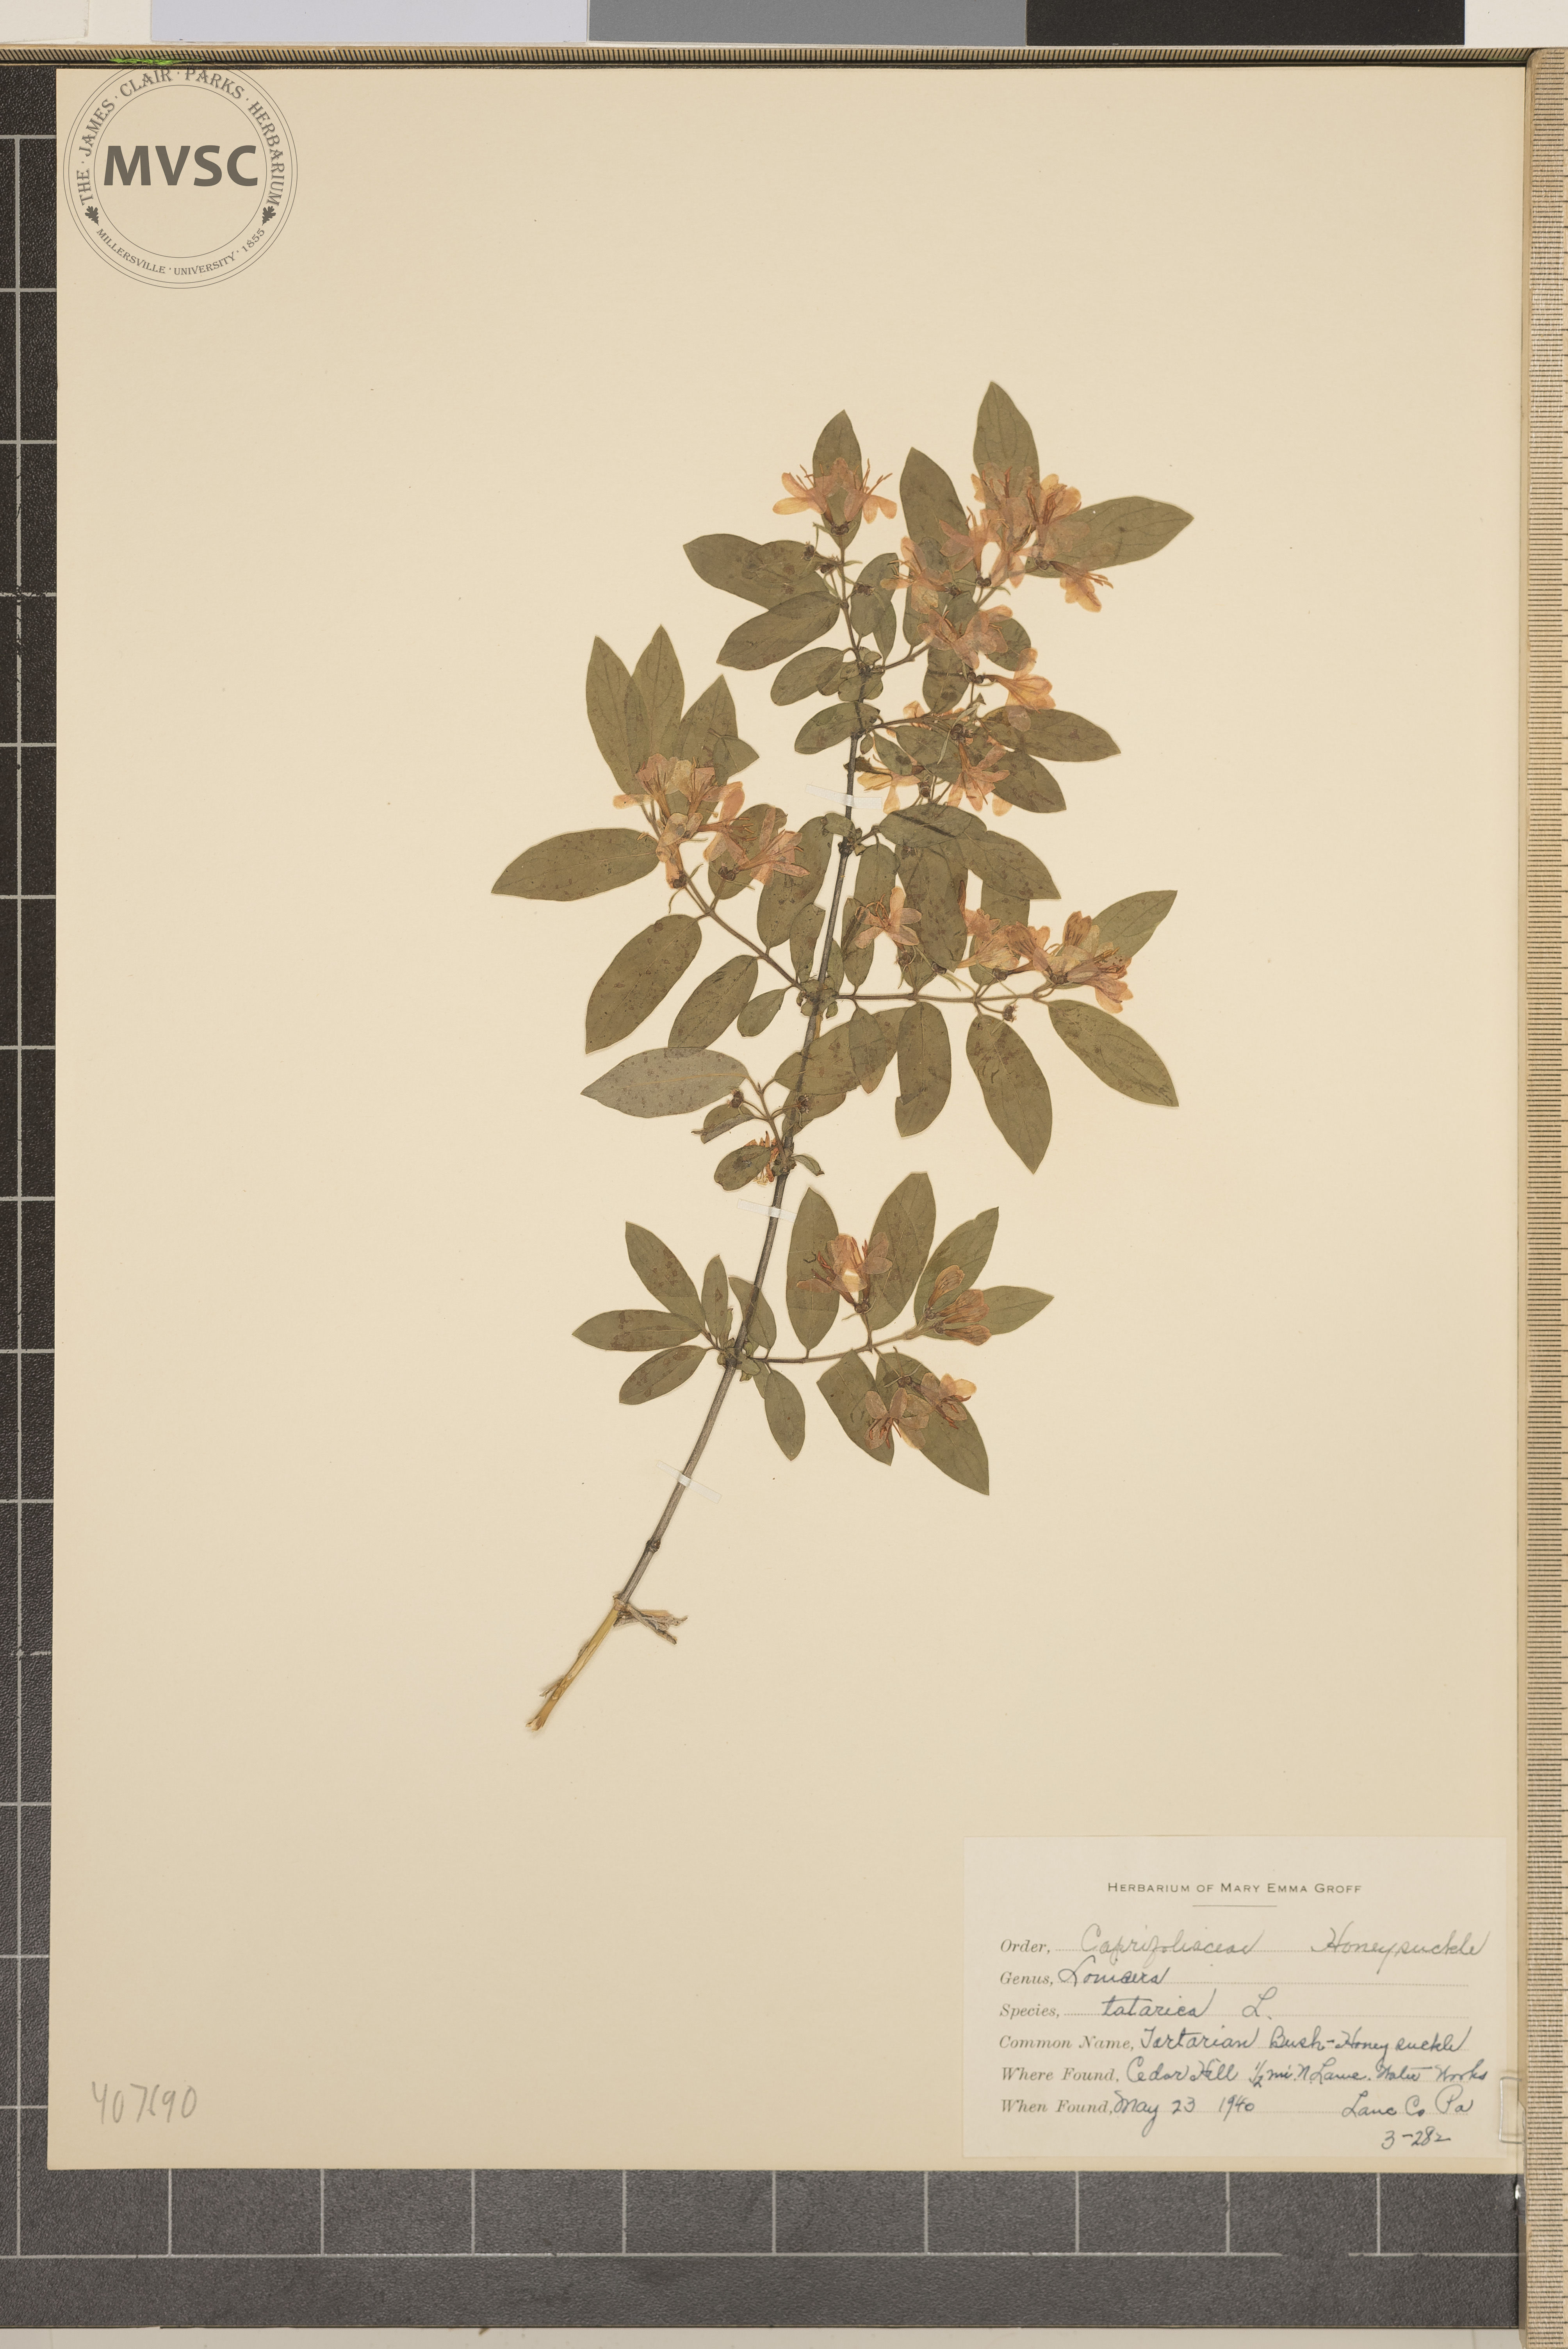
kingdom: Plantae
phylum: Tracheophyta
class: Magnoliopsida
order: Dipsacales
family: Caprifoliaceae
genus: Lonicera
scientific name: Lonicera morrowii
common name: Tatarian honeysuckle
